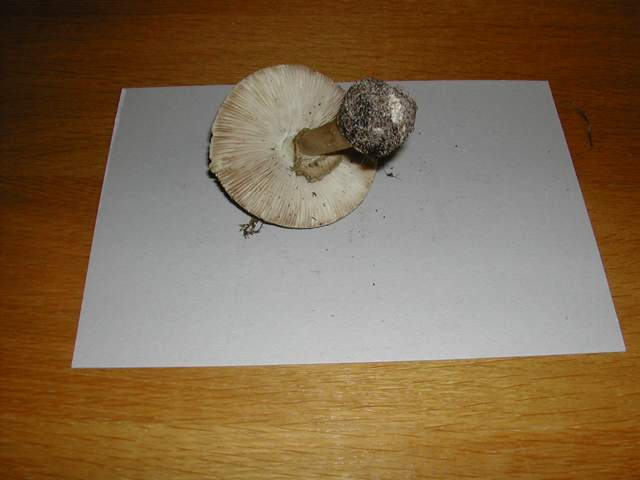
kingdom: Fungi
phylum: Basidiomycota
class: Agaricomycetes
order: Agaricales
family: Amanitaceae
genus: Amanita
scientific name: Amanita
